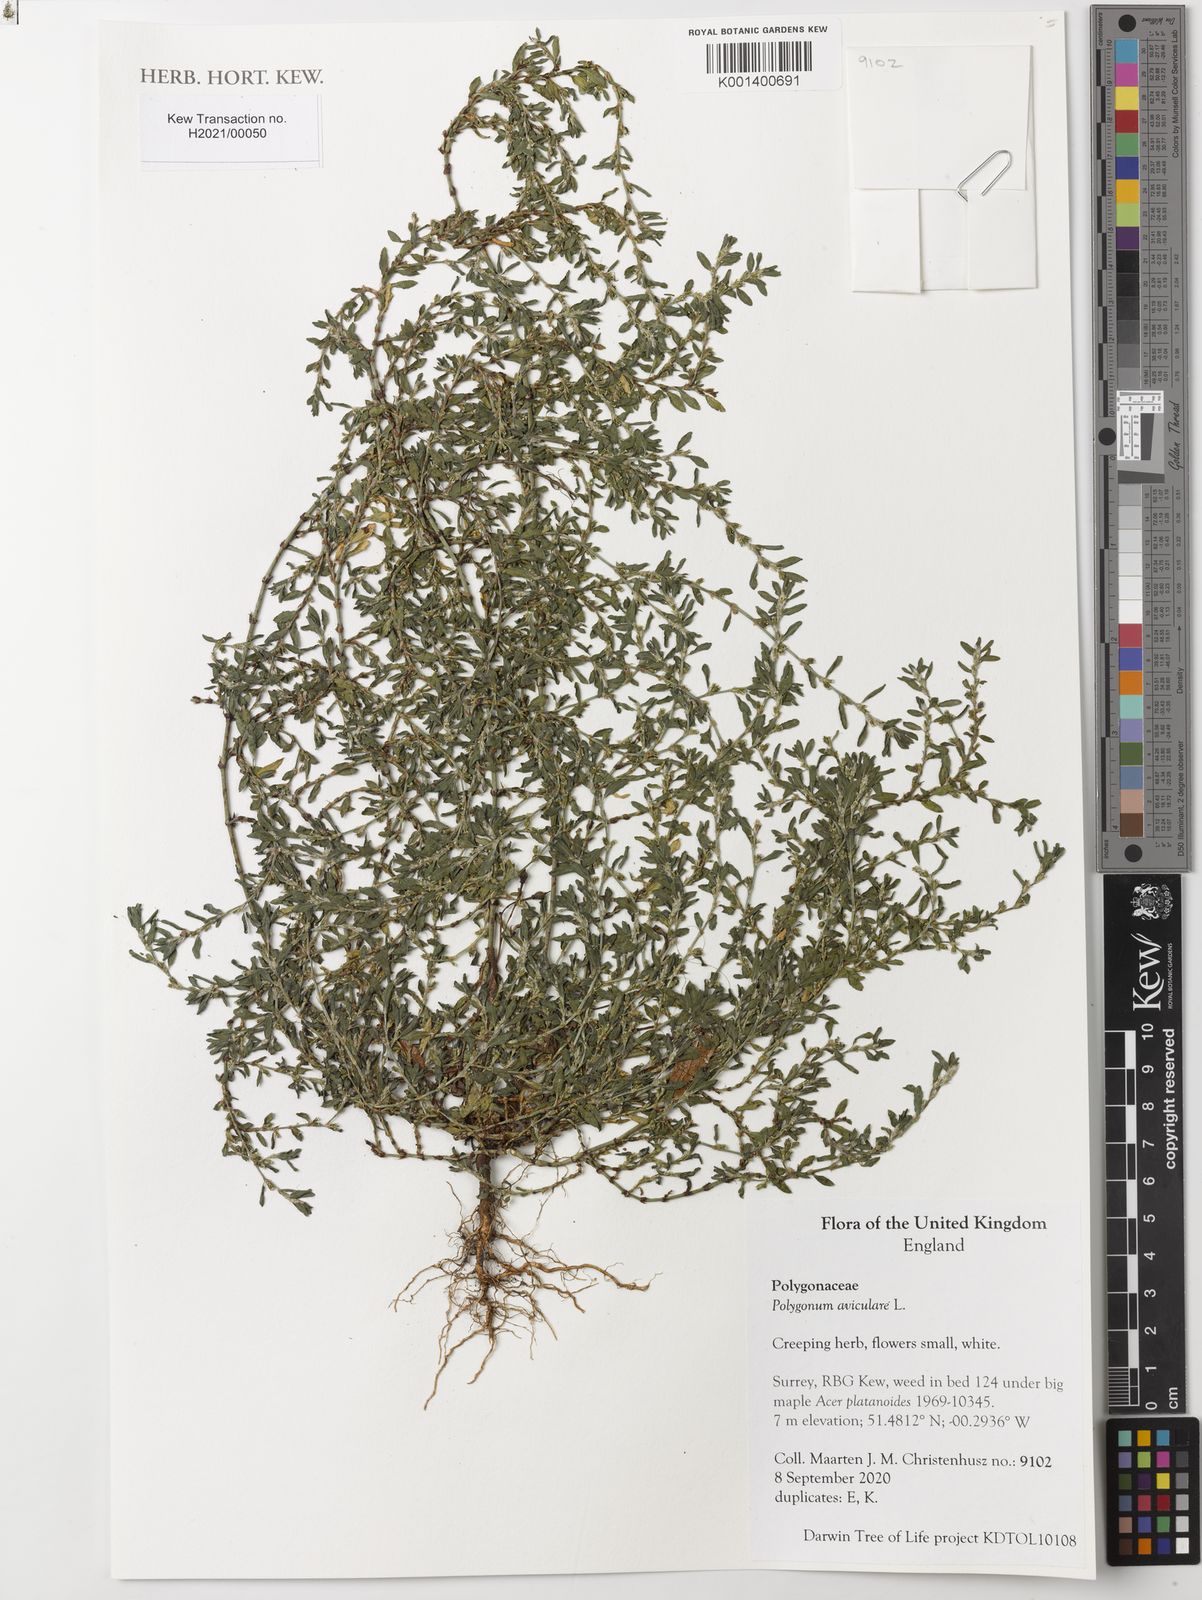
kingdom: Plantae
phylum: Tracheophyta
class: Magnoliopsida
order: Caryophyllales
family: Polygonaceae
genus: Polygonum
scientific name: Polygonum aviculare
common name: Prostrate knotweed
